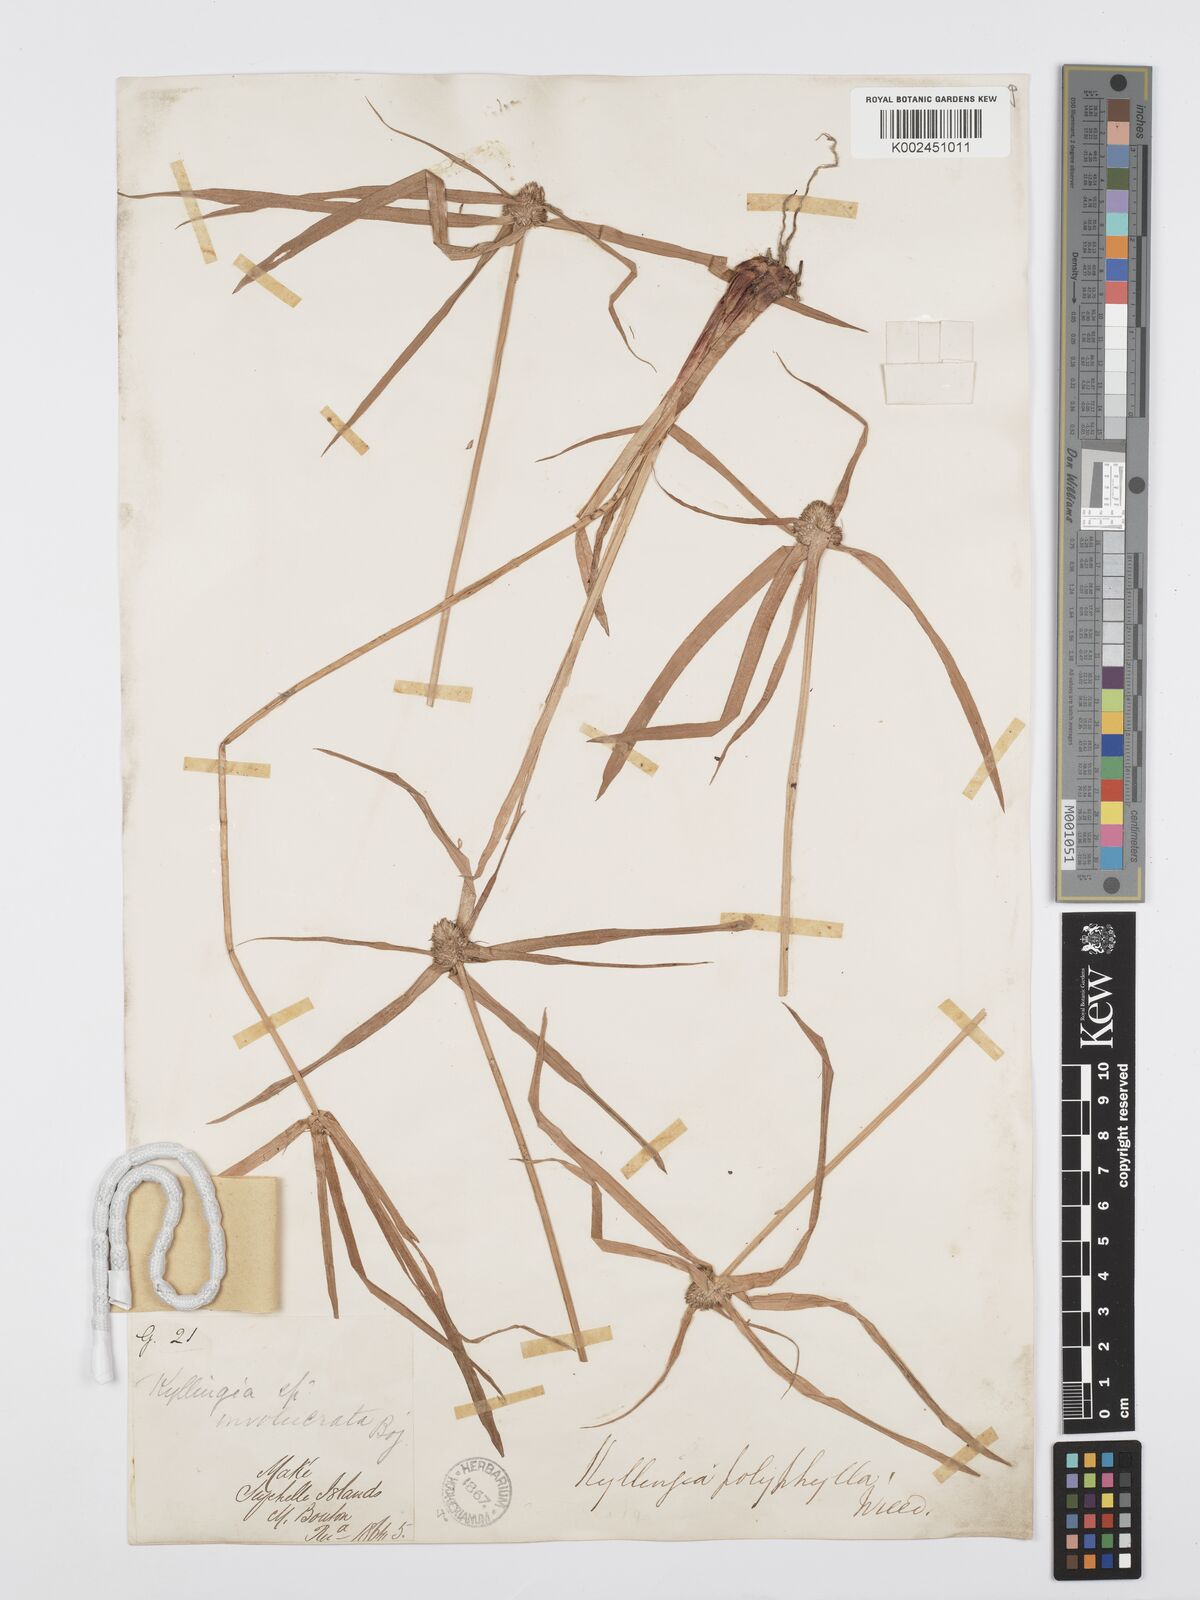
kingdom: Plantae
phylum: Tracheophyta
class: Liliopsida
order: Poales
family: Cyperaceae
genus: Cyperus
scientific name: Cyperus bulbosus
